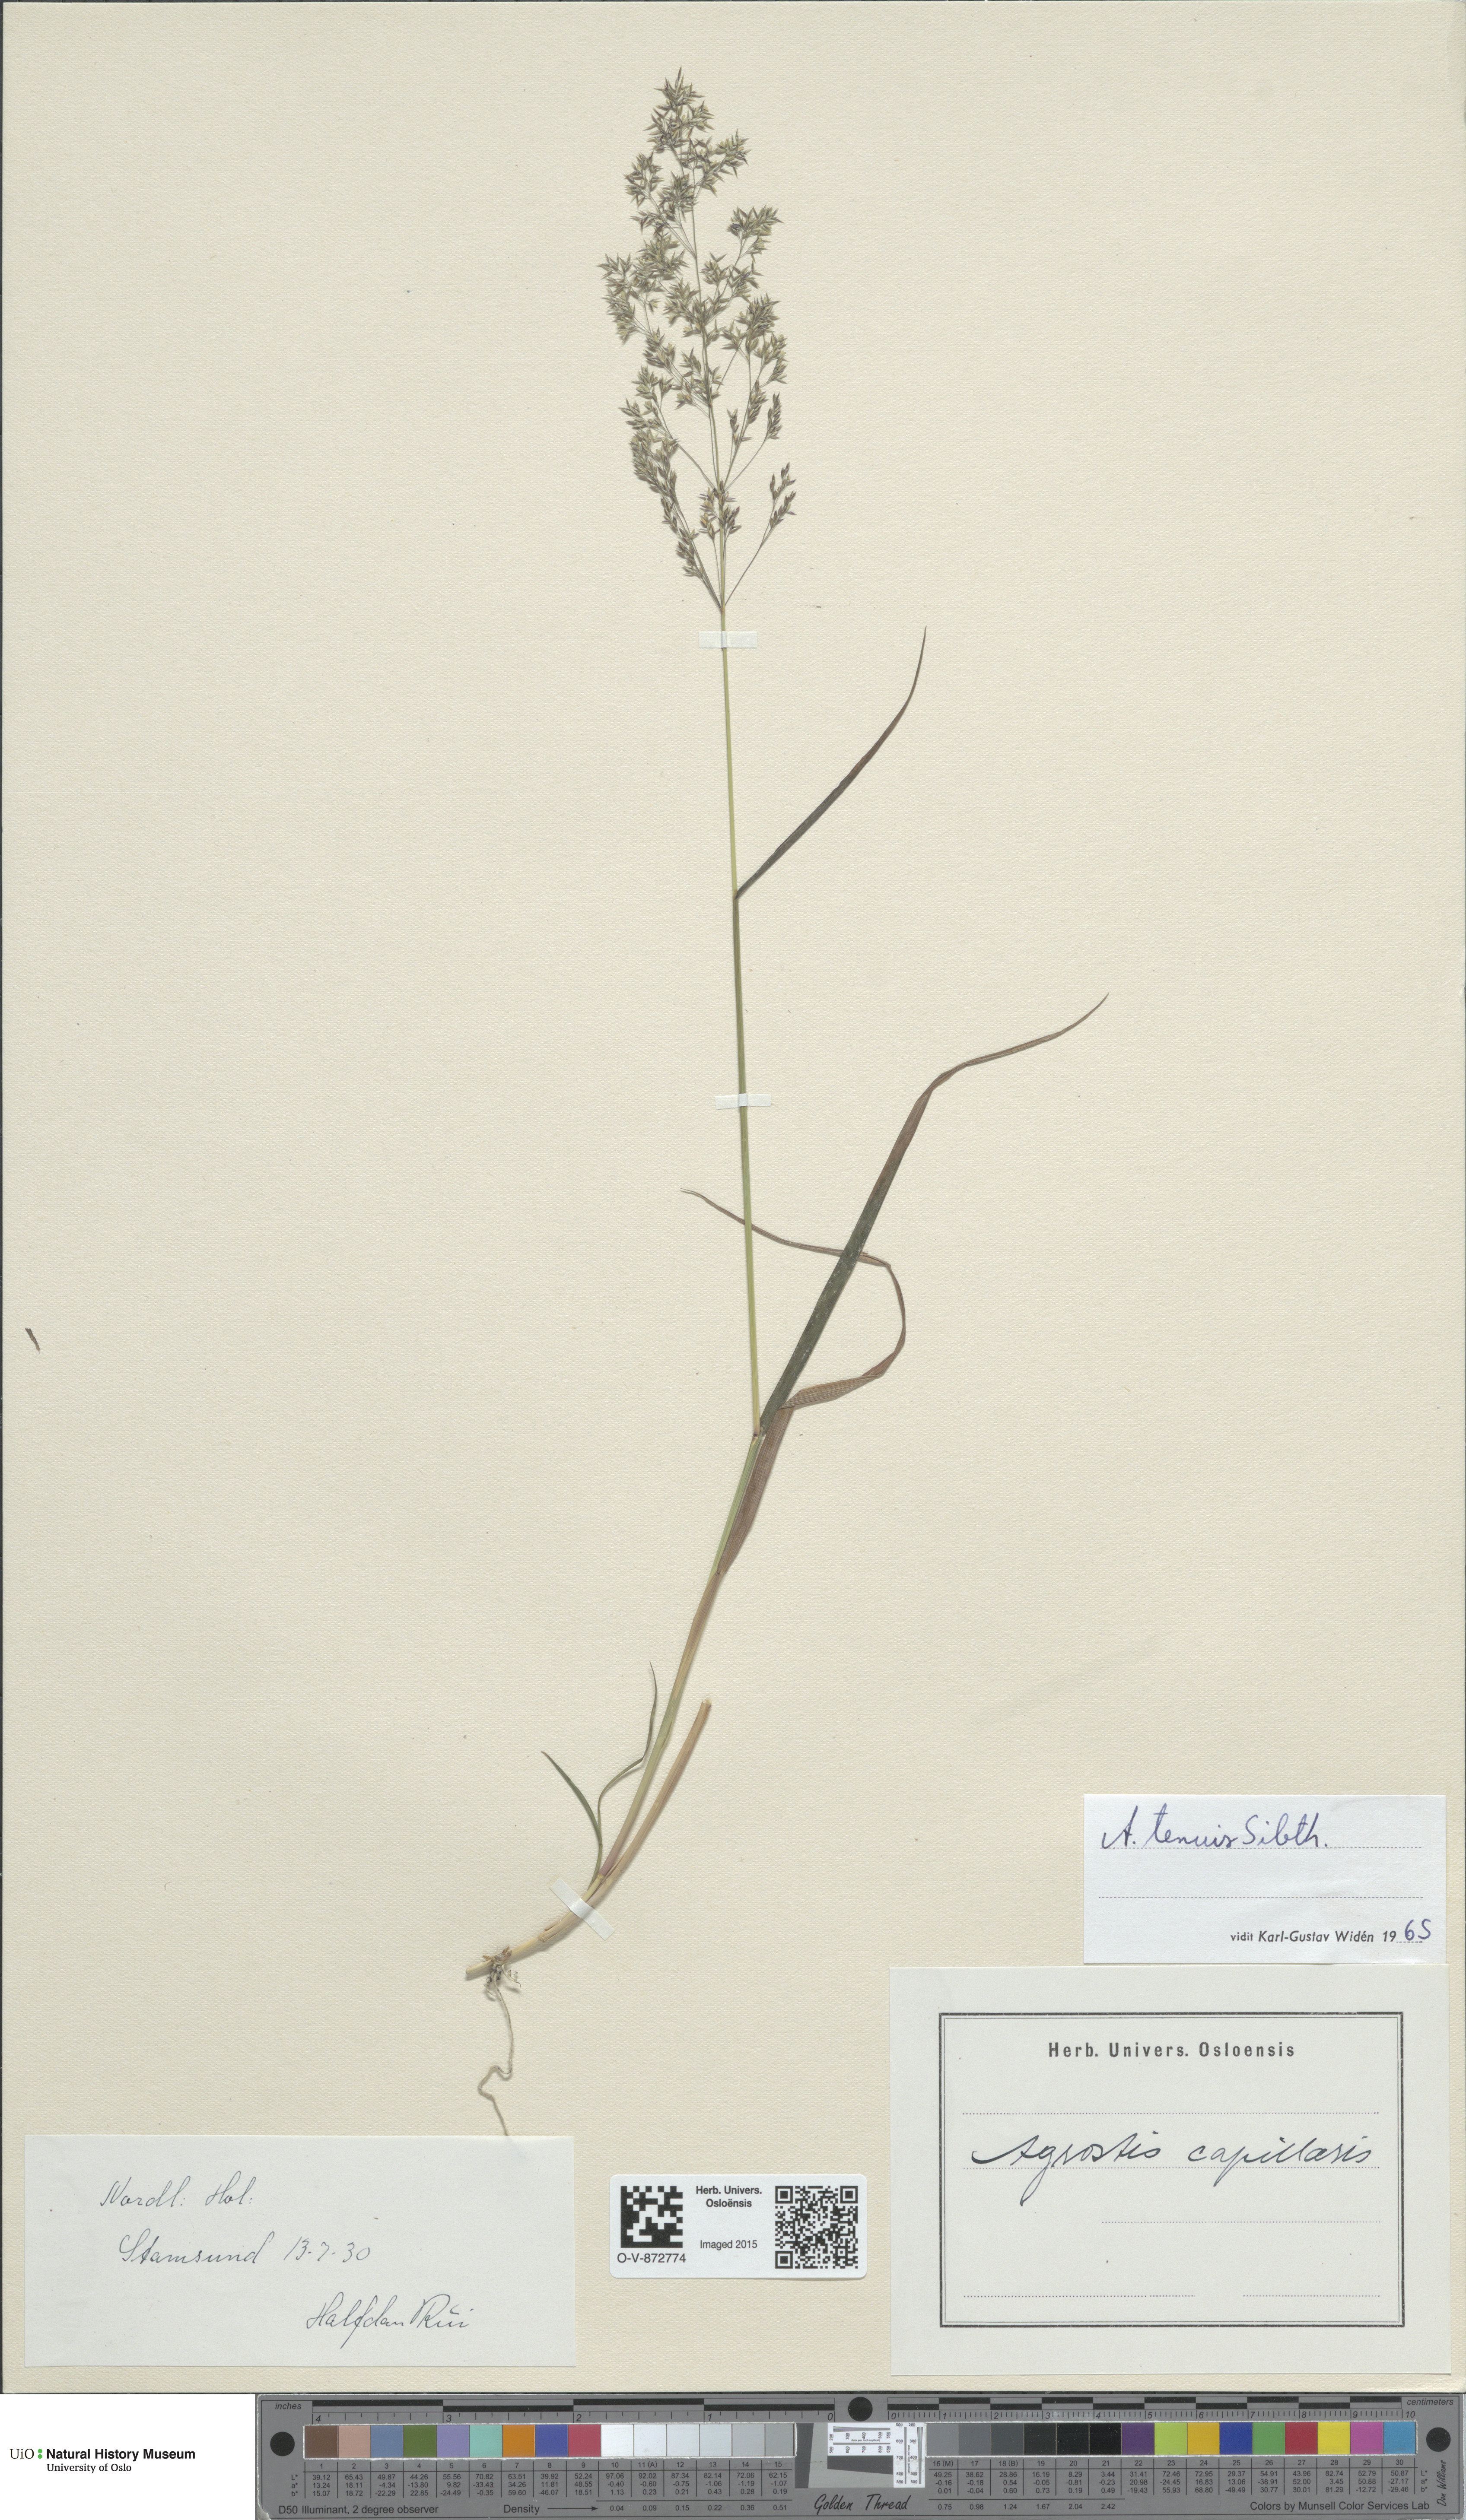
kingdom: Plantae
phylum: Tracheophyta
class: Liliopsida
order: Poales
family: Poaceae
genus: Agrostis
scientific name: Agrostis capillaris
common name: Colonial bentgrass
